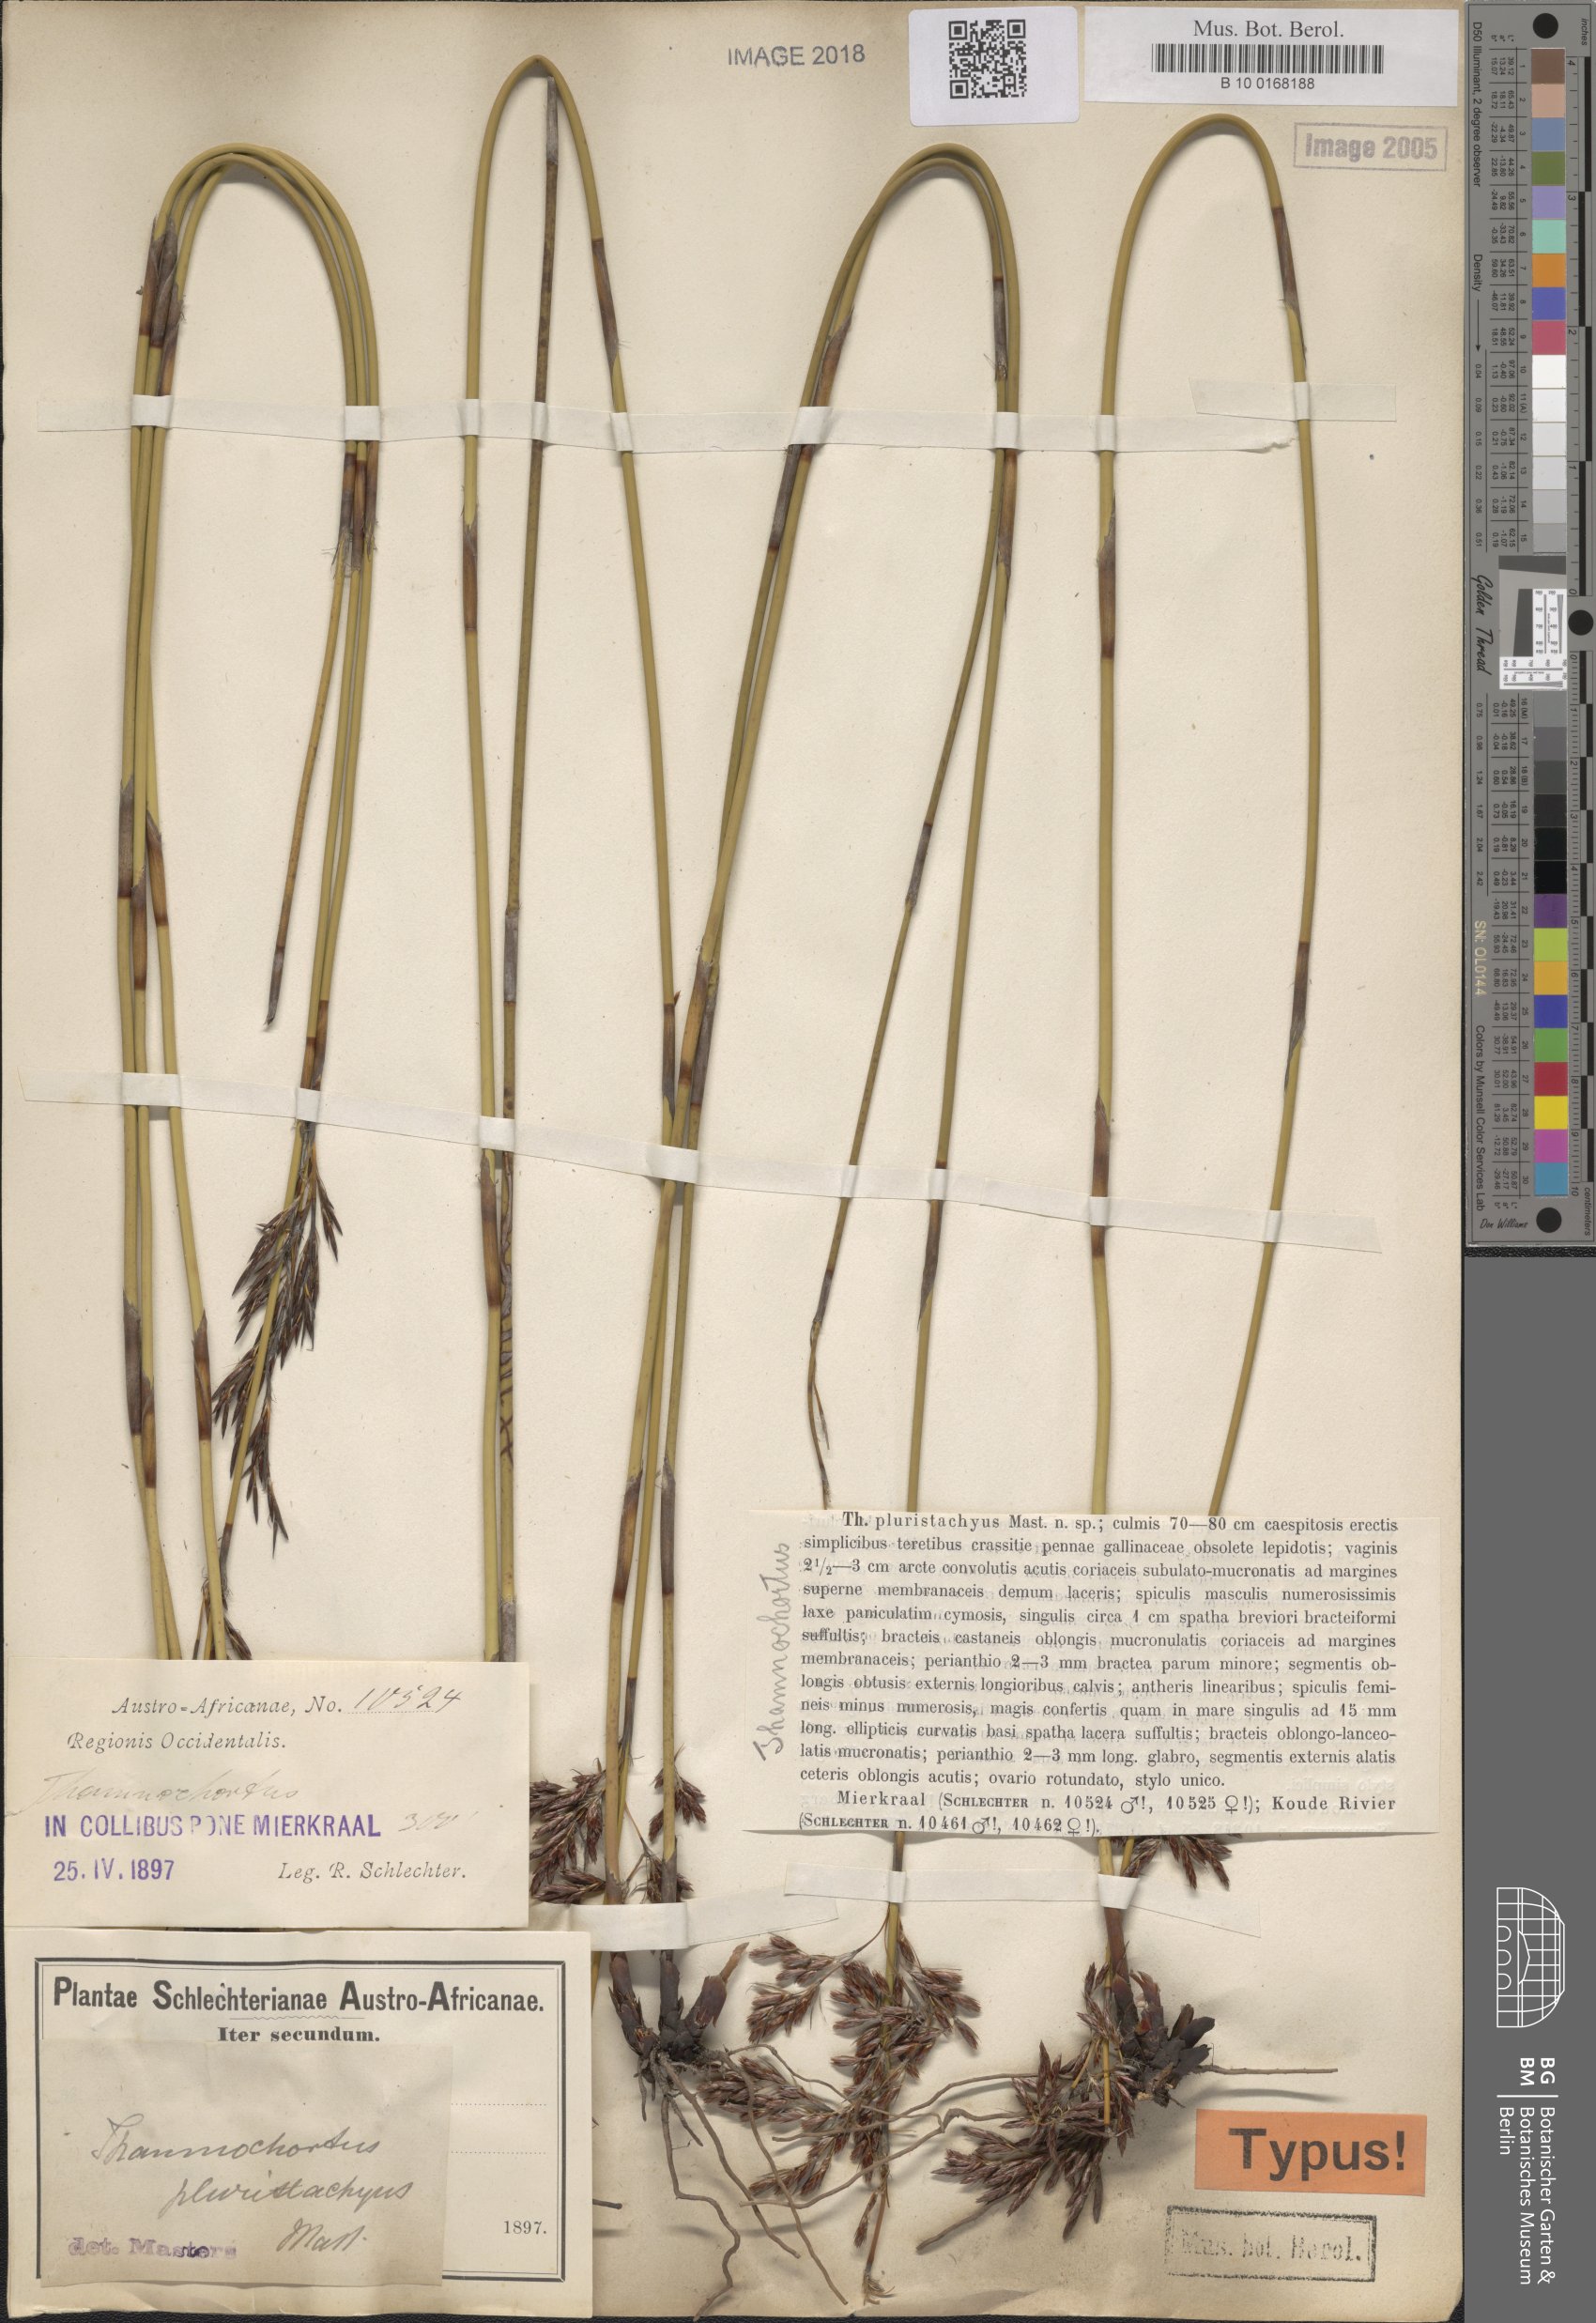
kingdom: Plantae
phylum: Tracheophyta
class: Liliopsida
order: Poales
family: Restionaceae
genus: Thamnochortus
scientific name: Thamnochortus pluristachyus
